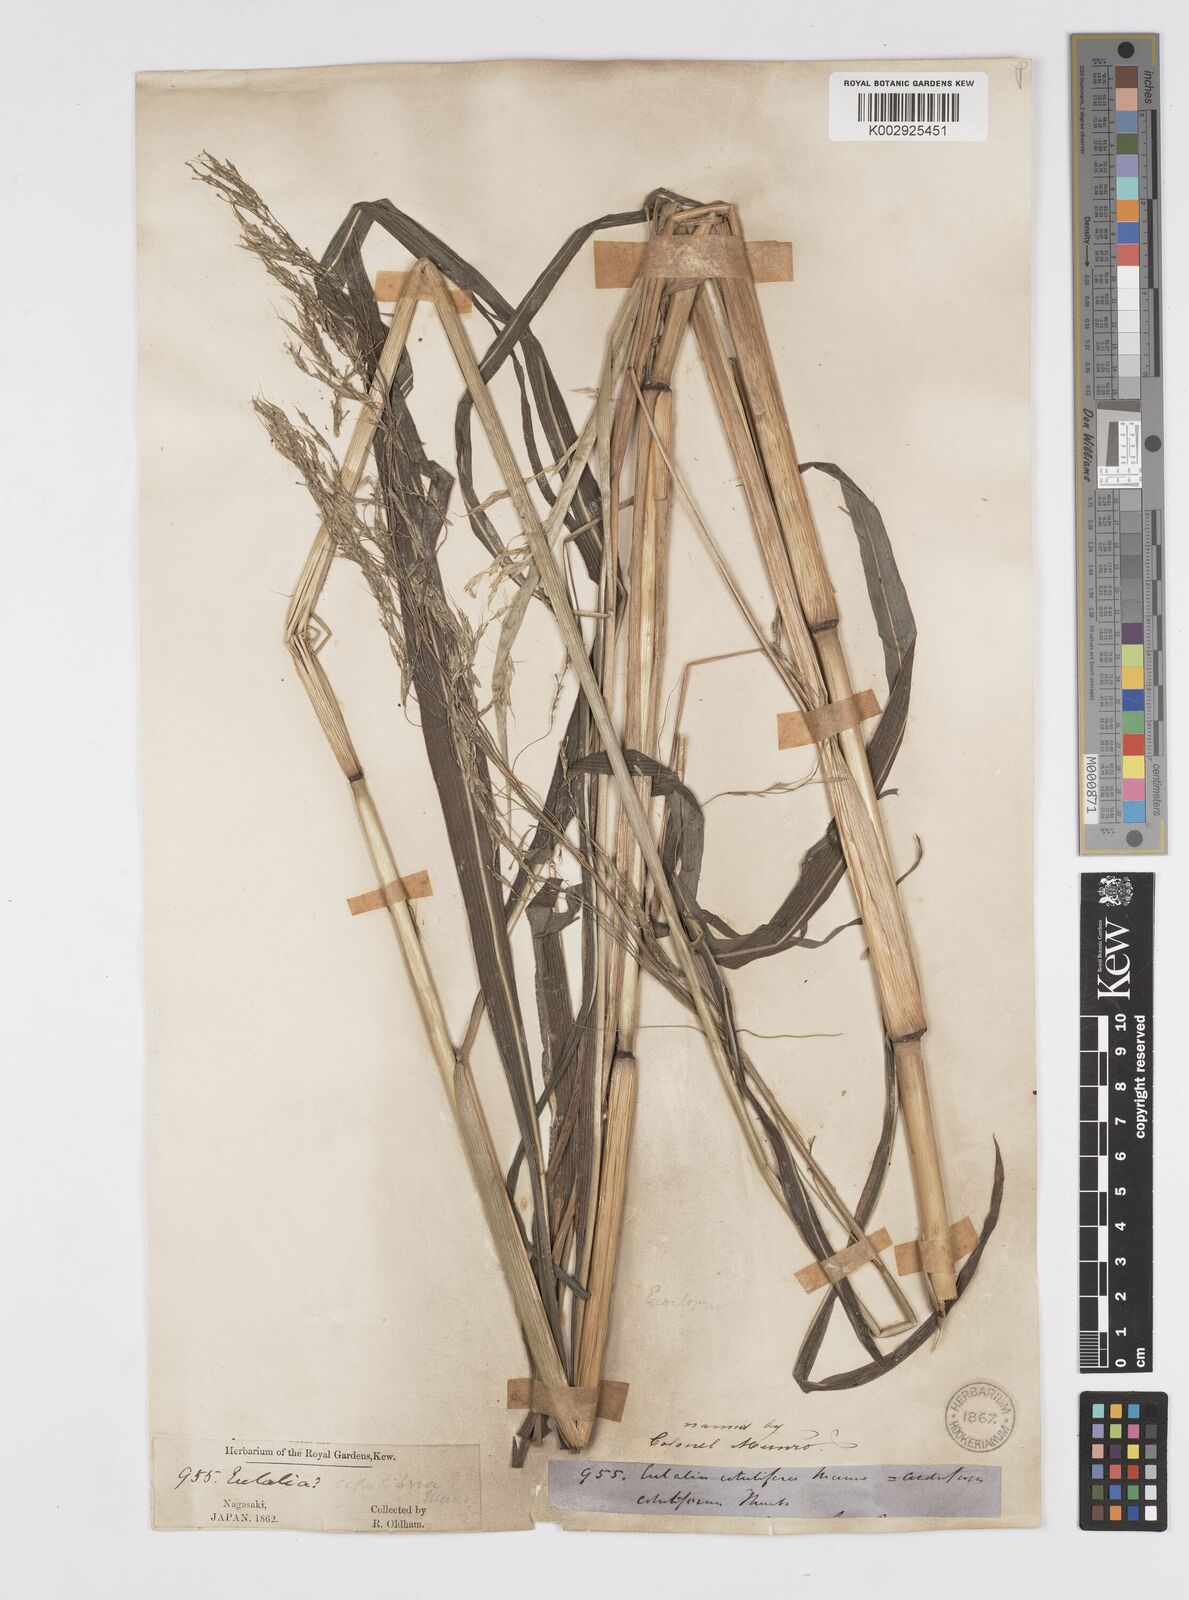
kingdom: Plantae
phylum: Tracheophyta
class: Liliopsida
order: Poales
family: Poaceae
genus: Spodiopogon
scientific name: Spodiopogon cotulifer
